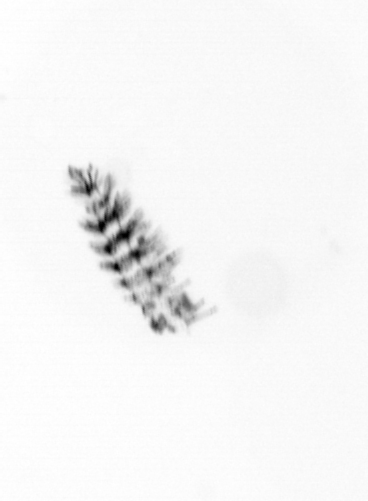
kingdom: Chromista
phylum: Ochrophyta
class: Bacillariophyceae
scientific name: Bacillariophyceae
